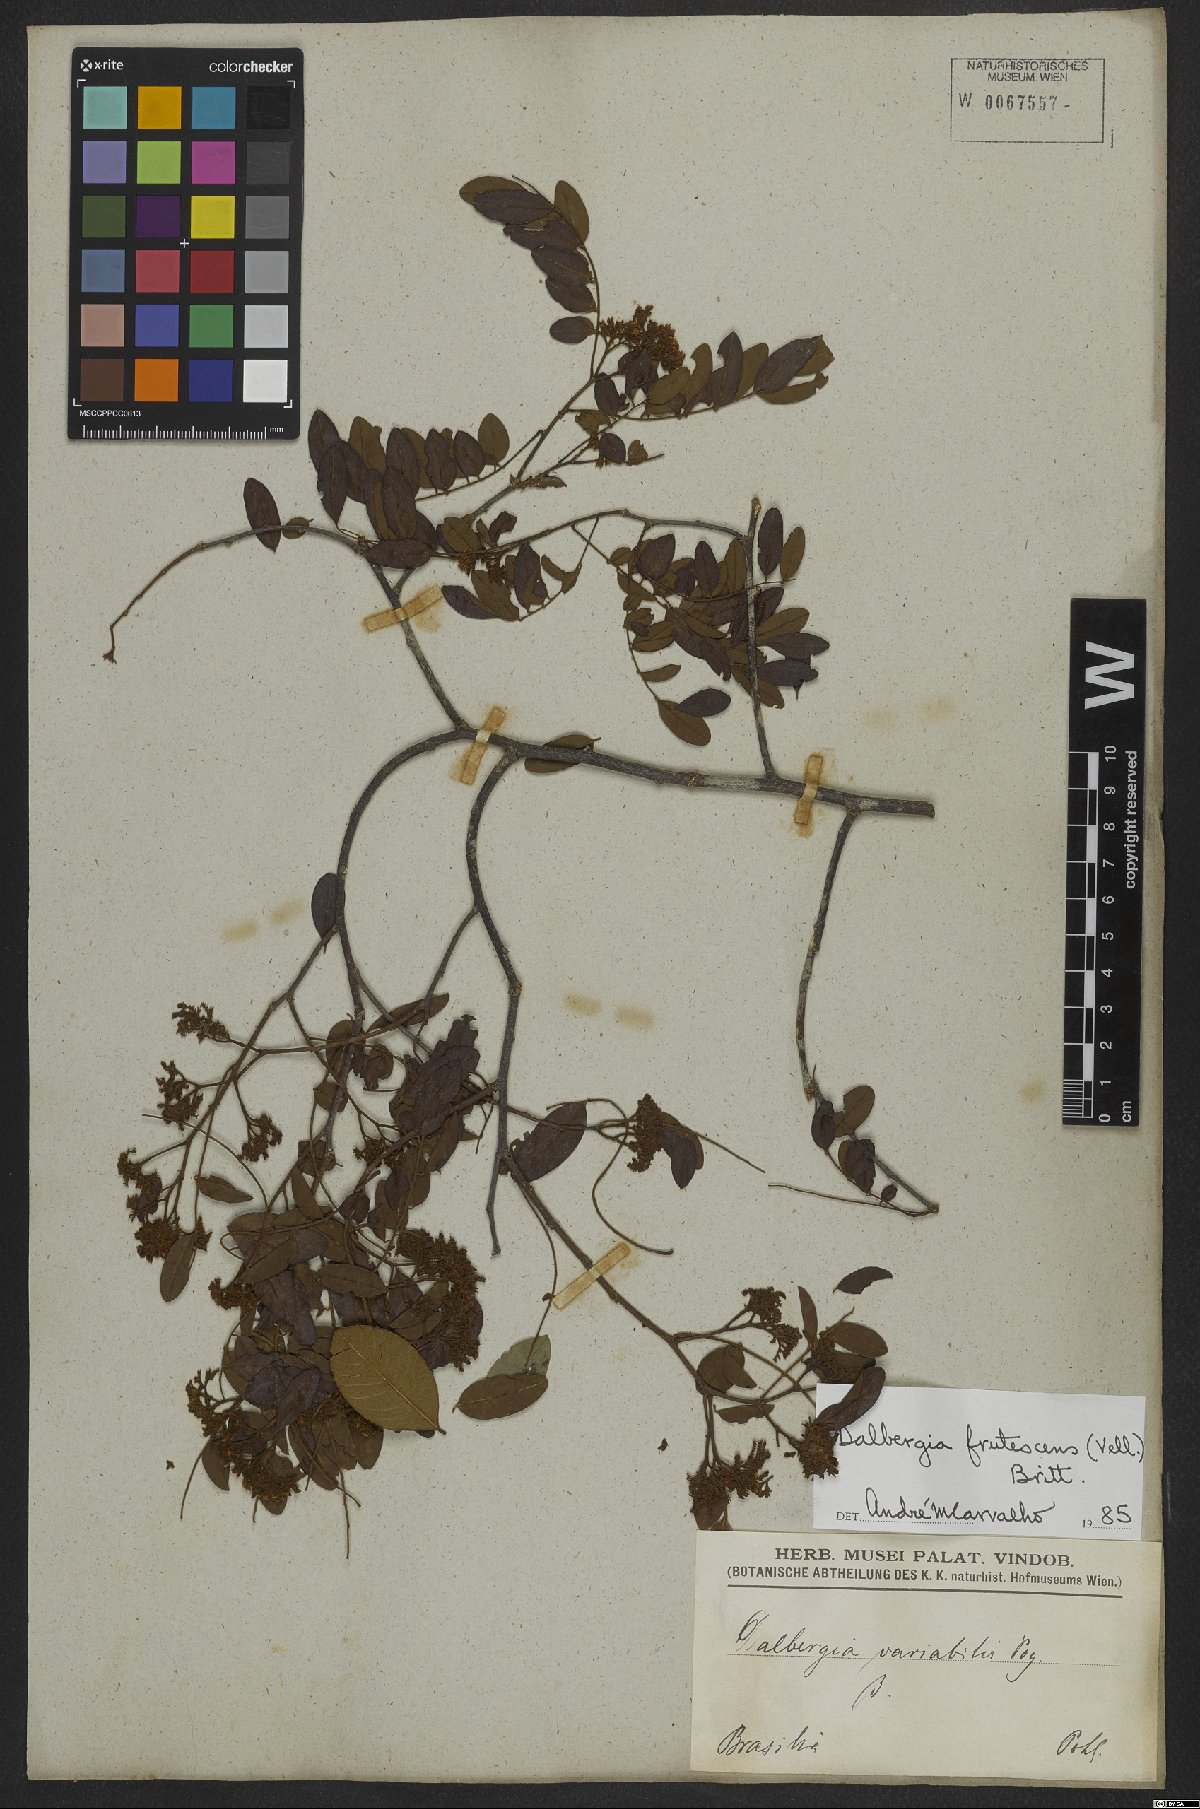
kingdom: Plantae
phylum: Tracheophyta
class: Magnoliopsida
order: Fabales
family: Fabaceae
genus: Dalbergia
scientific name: Dalbergia frutescens
